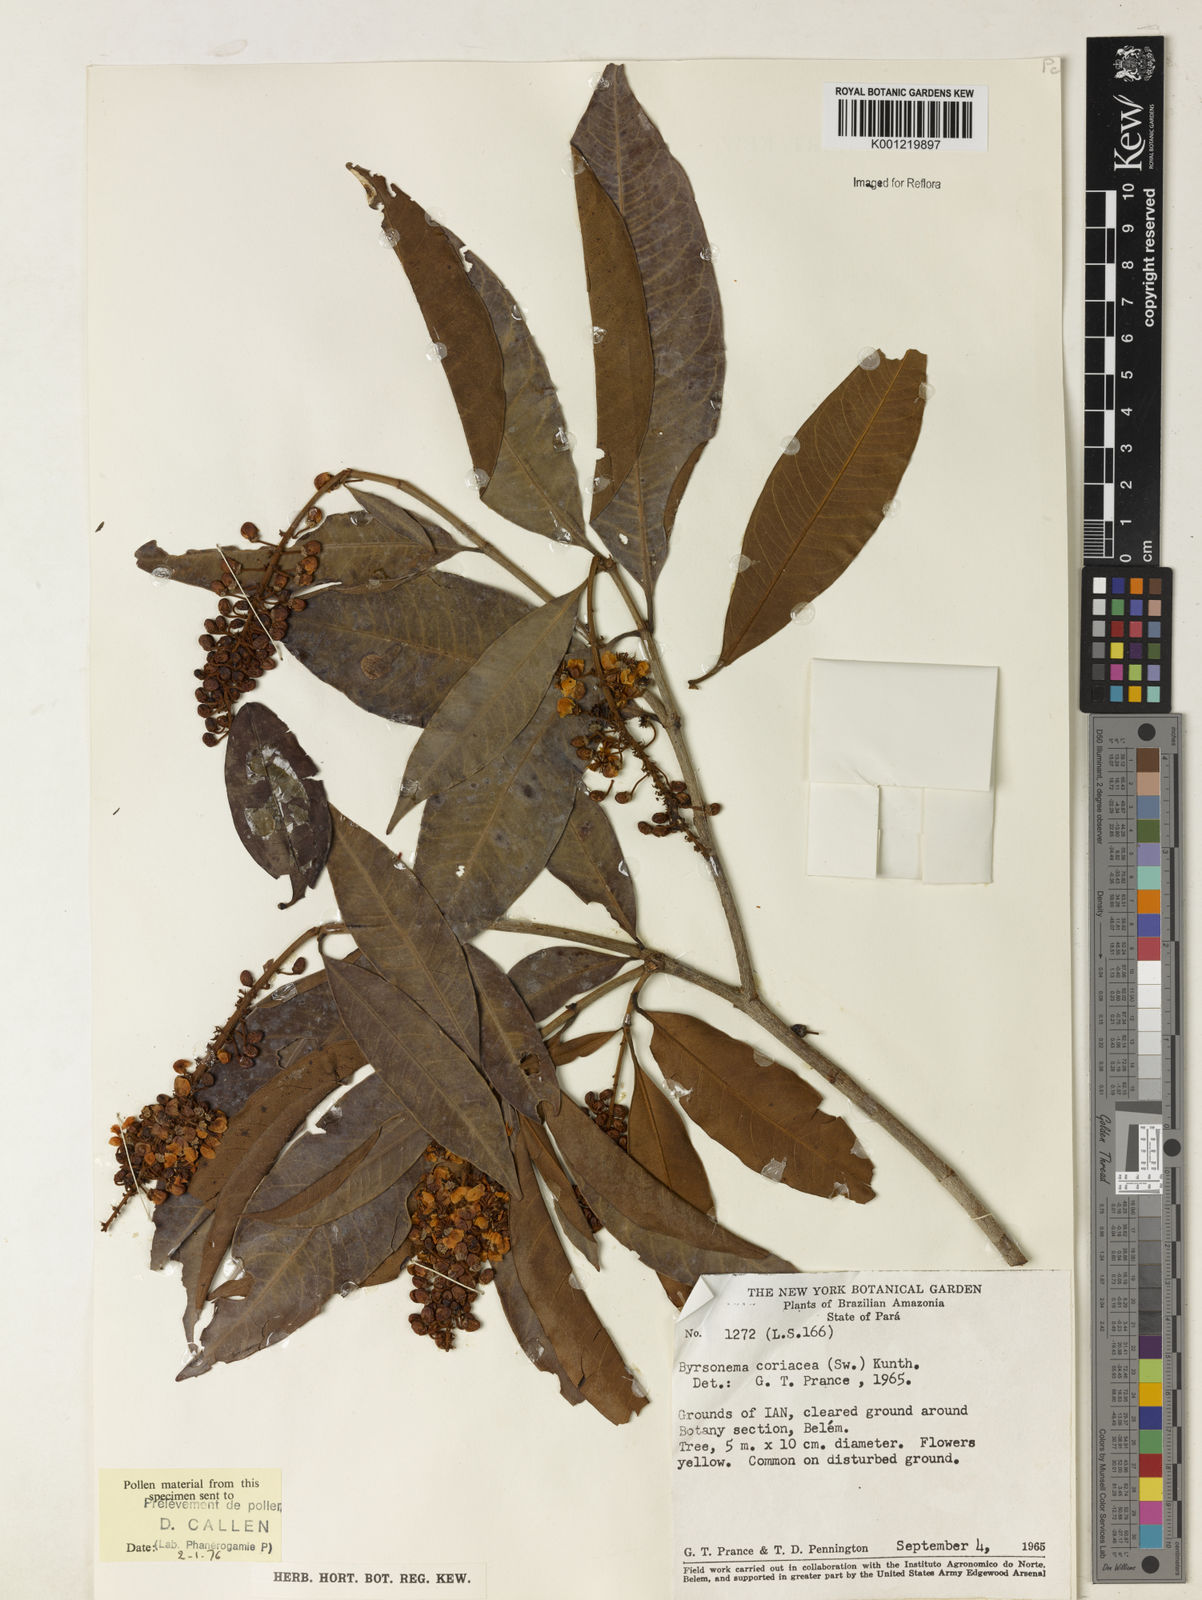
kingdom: Plantae
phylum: Tracheophyta
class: Magnoliopsida
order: Malpighiales
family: Malpighiaceae
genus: Byrsonima
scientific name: Byrsonima
